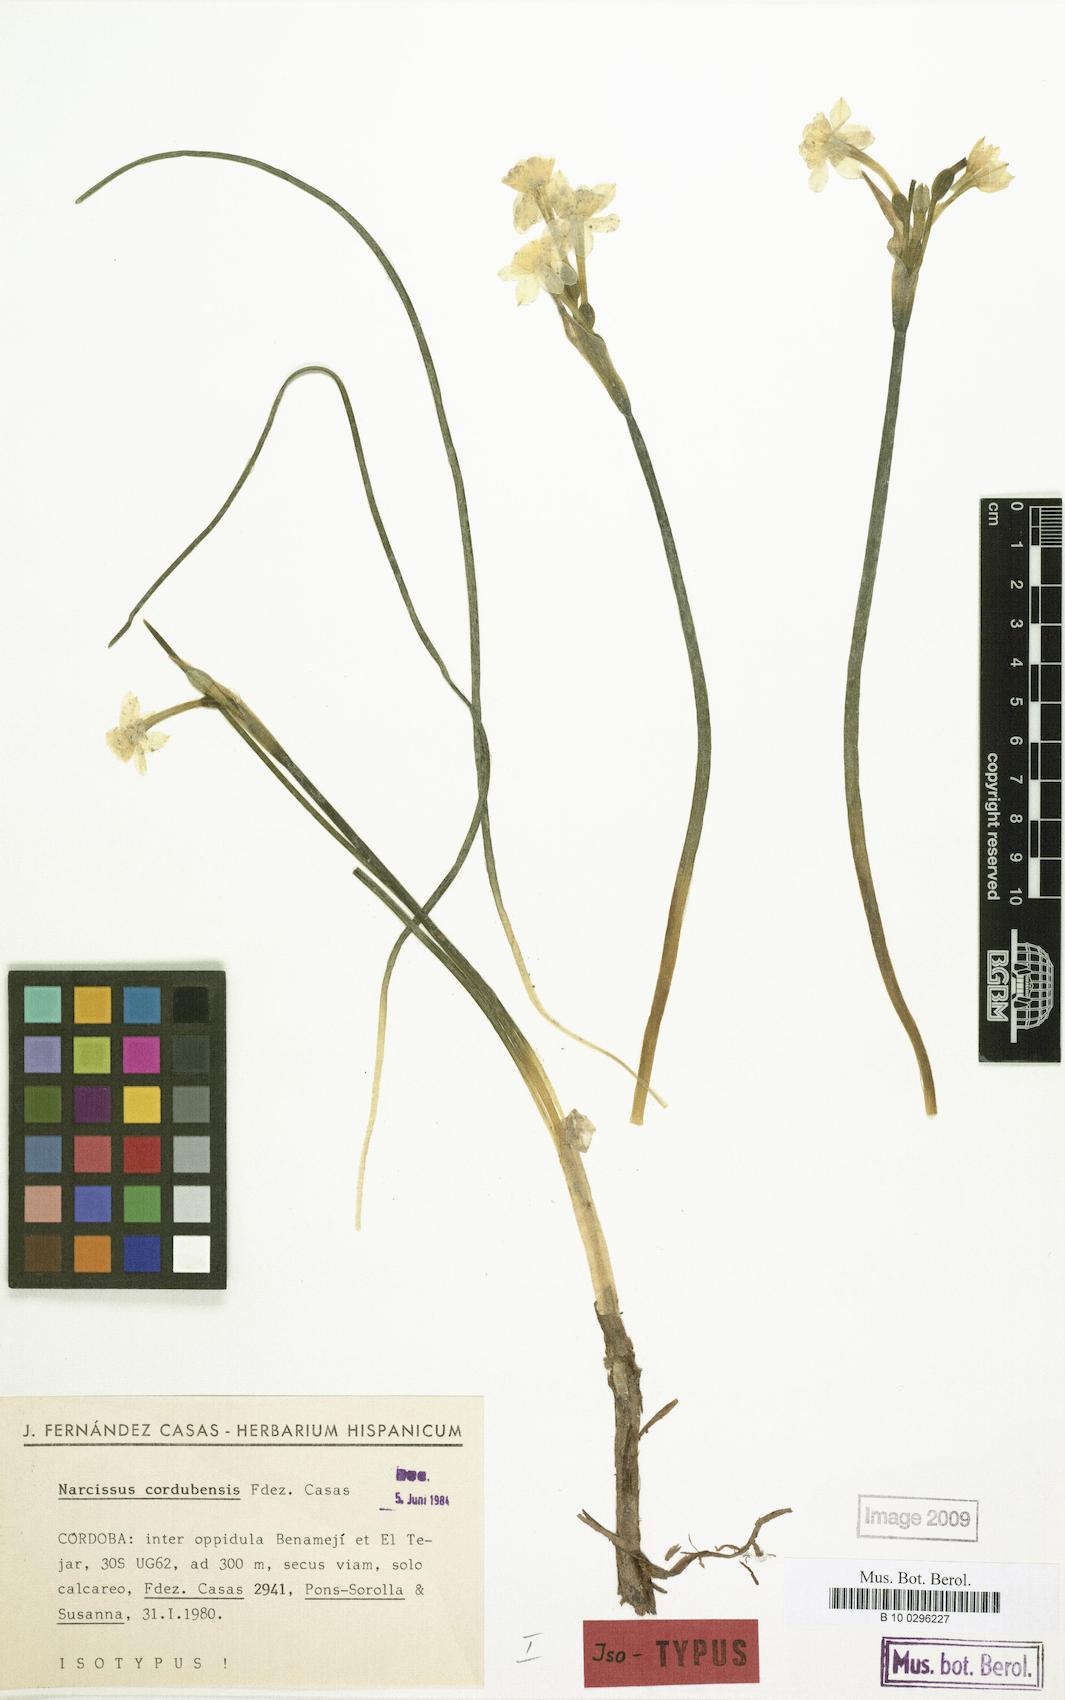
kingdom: Plantae
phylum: Tracheophyta
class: Liliopsida
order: Asparagales
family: Amaryllidaceae
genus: Narcissus
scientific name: Narcissus cordubensis
